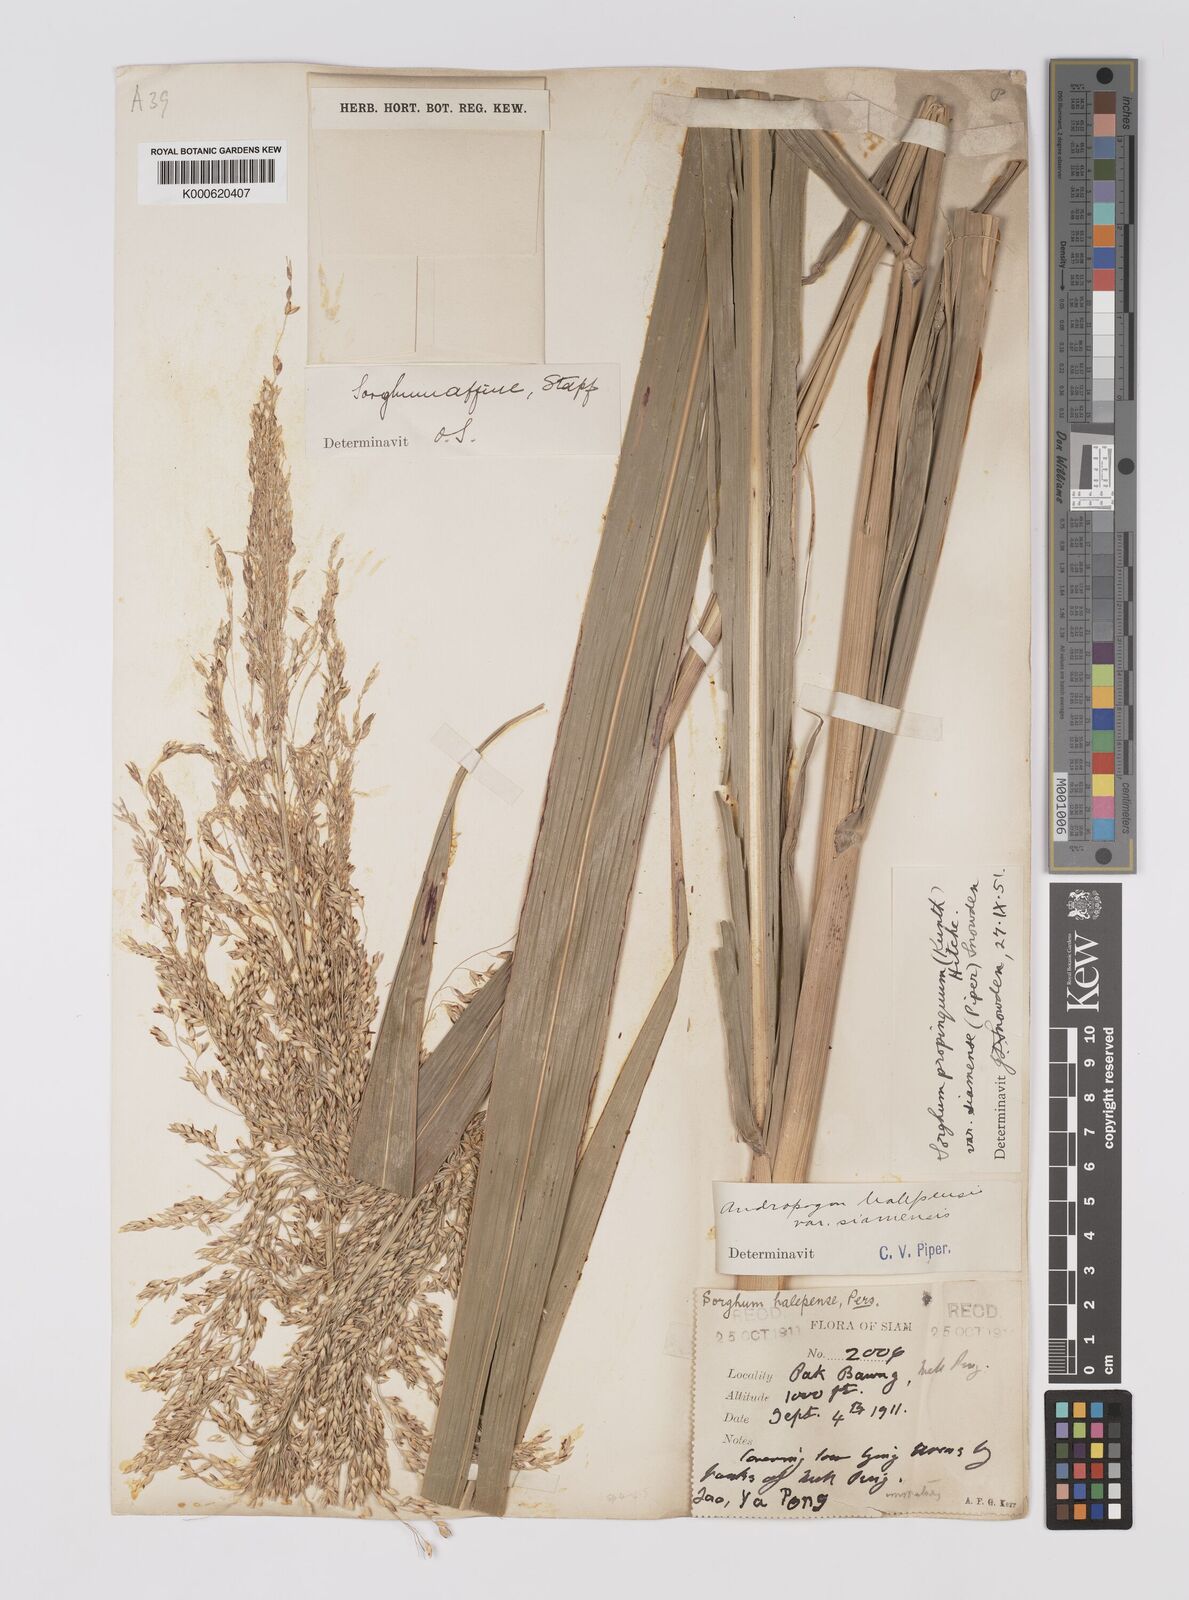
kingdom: Plantae
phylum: Tracheophyta
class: Liliopsida
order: Poales
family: Poaceae
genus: Sorghum
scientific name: Sorghum propinquum
